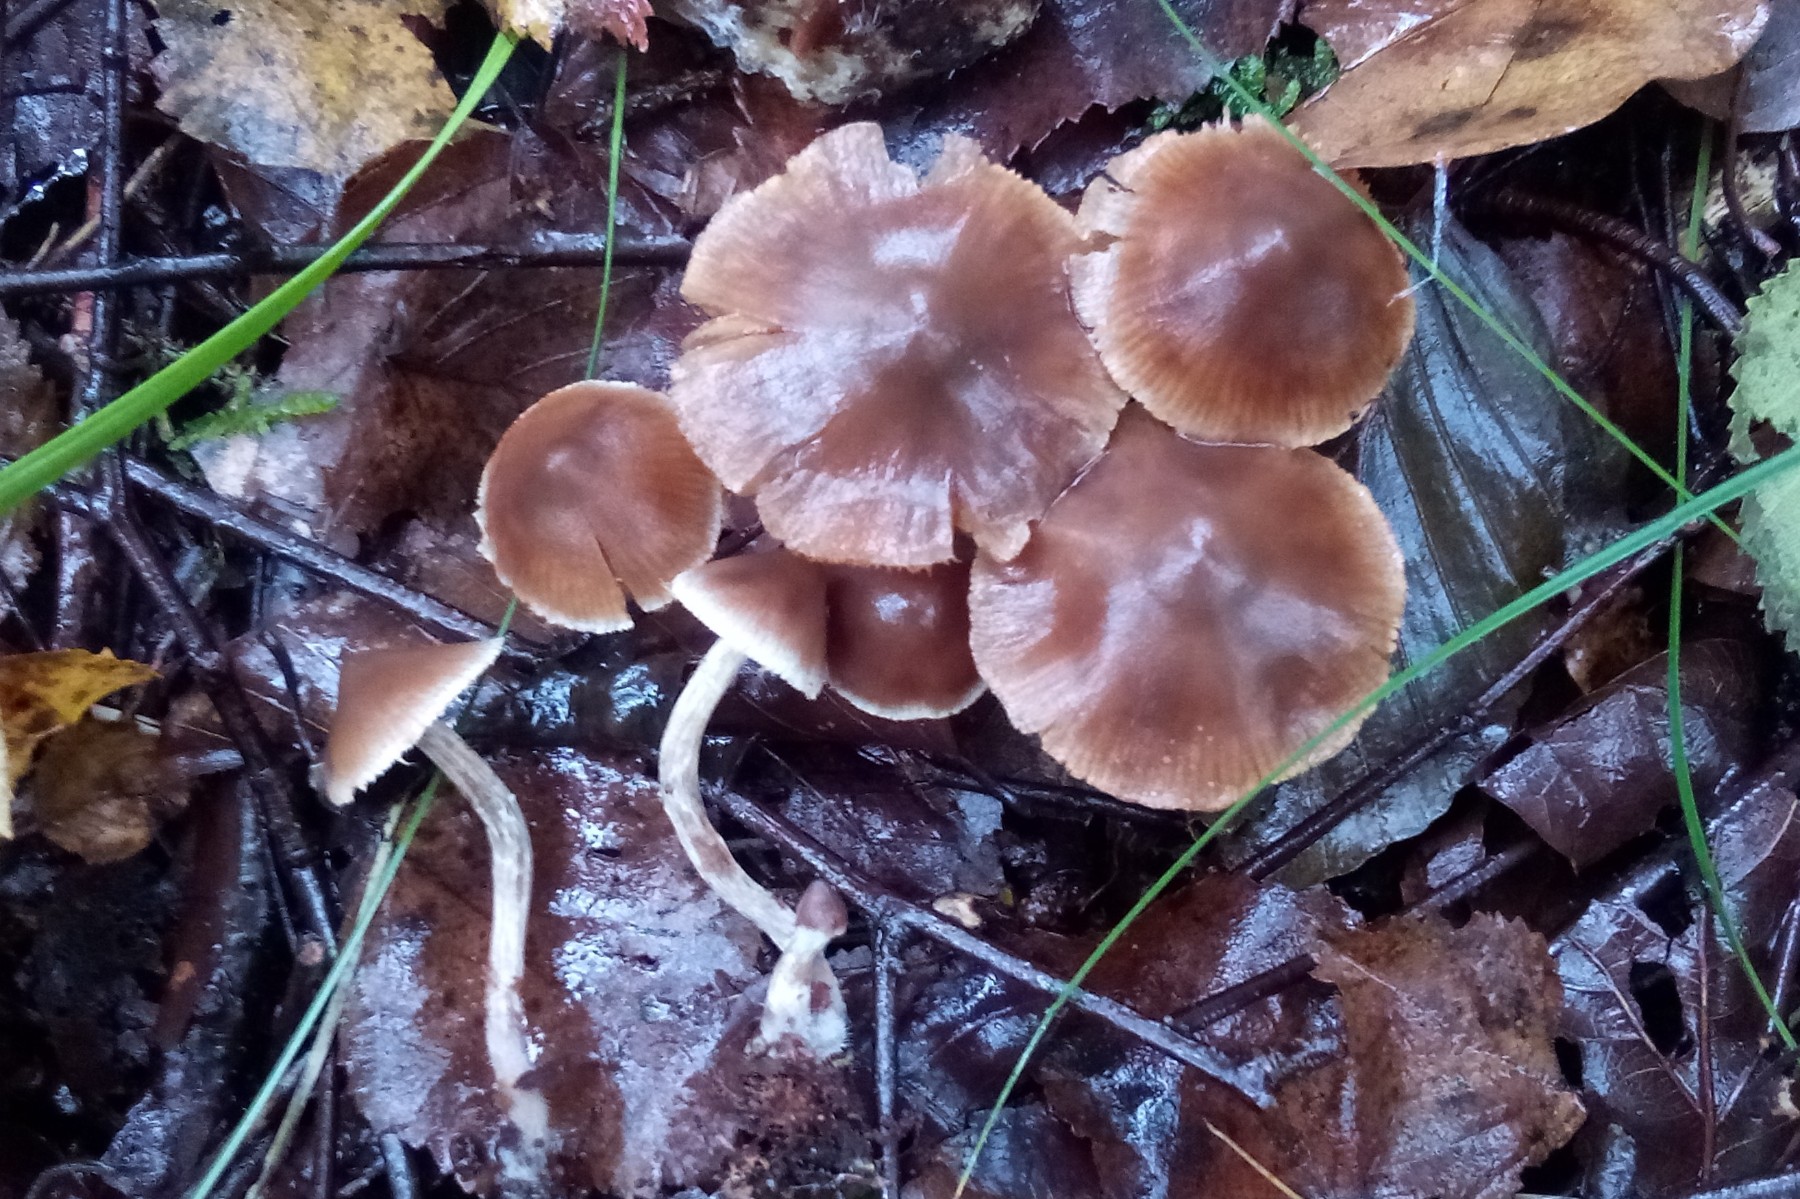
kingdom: Fungi
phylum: Basidiomycota
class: Agaricomycetes
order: Agaricales
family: Cortinariaceae
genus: Cortinarius
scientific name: Cortinarius pilatii
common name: Piláts slørhat
